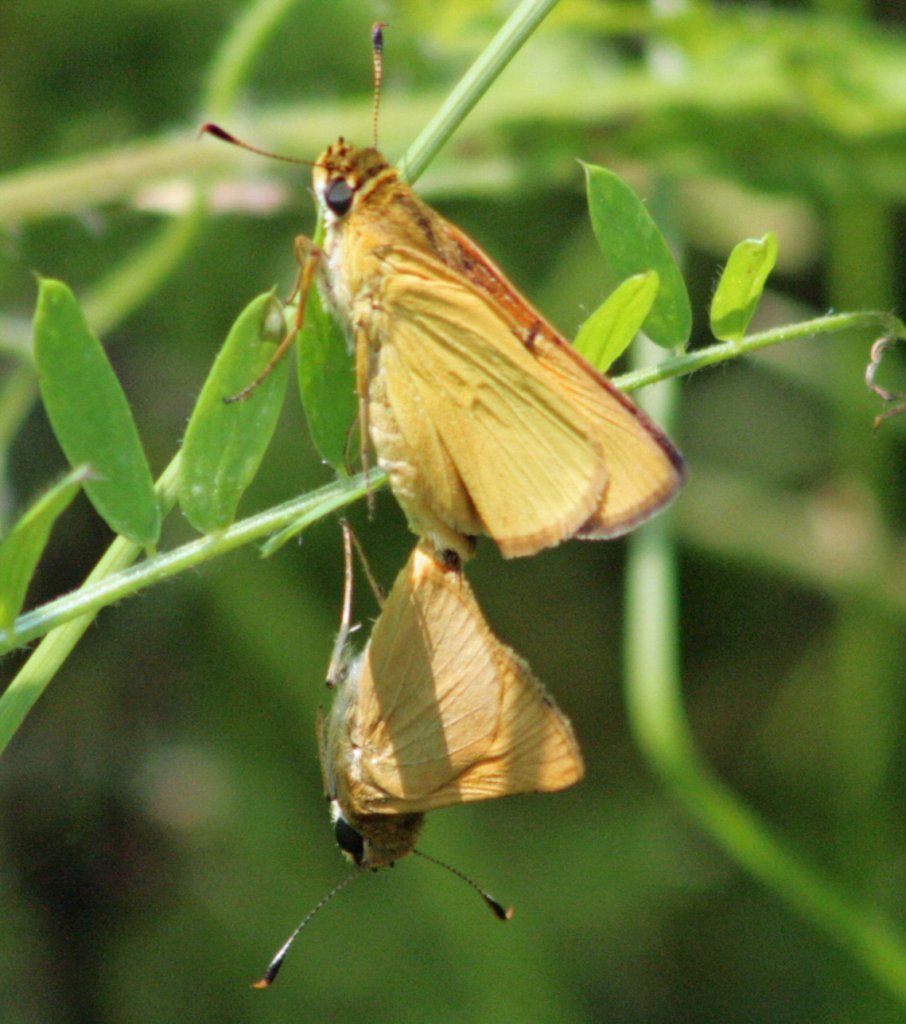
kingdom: Animalia
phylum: Arthropoda
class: Insecta
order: Lepidoptera
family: Hesperiidae
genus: Atrytone
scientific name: Atrytone delaware
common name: Delaware Skipper
